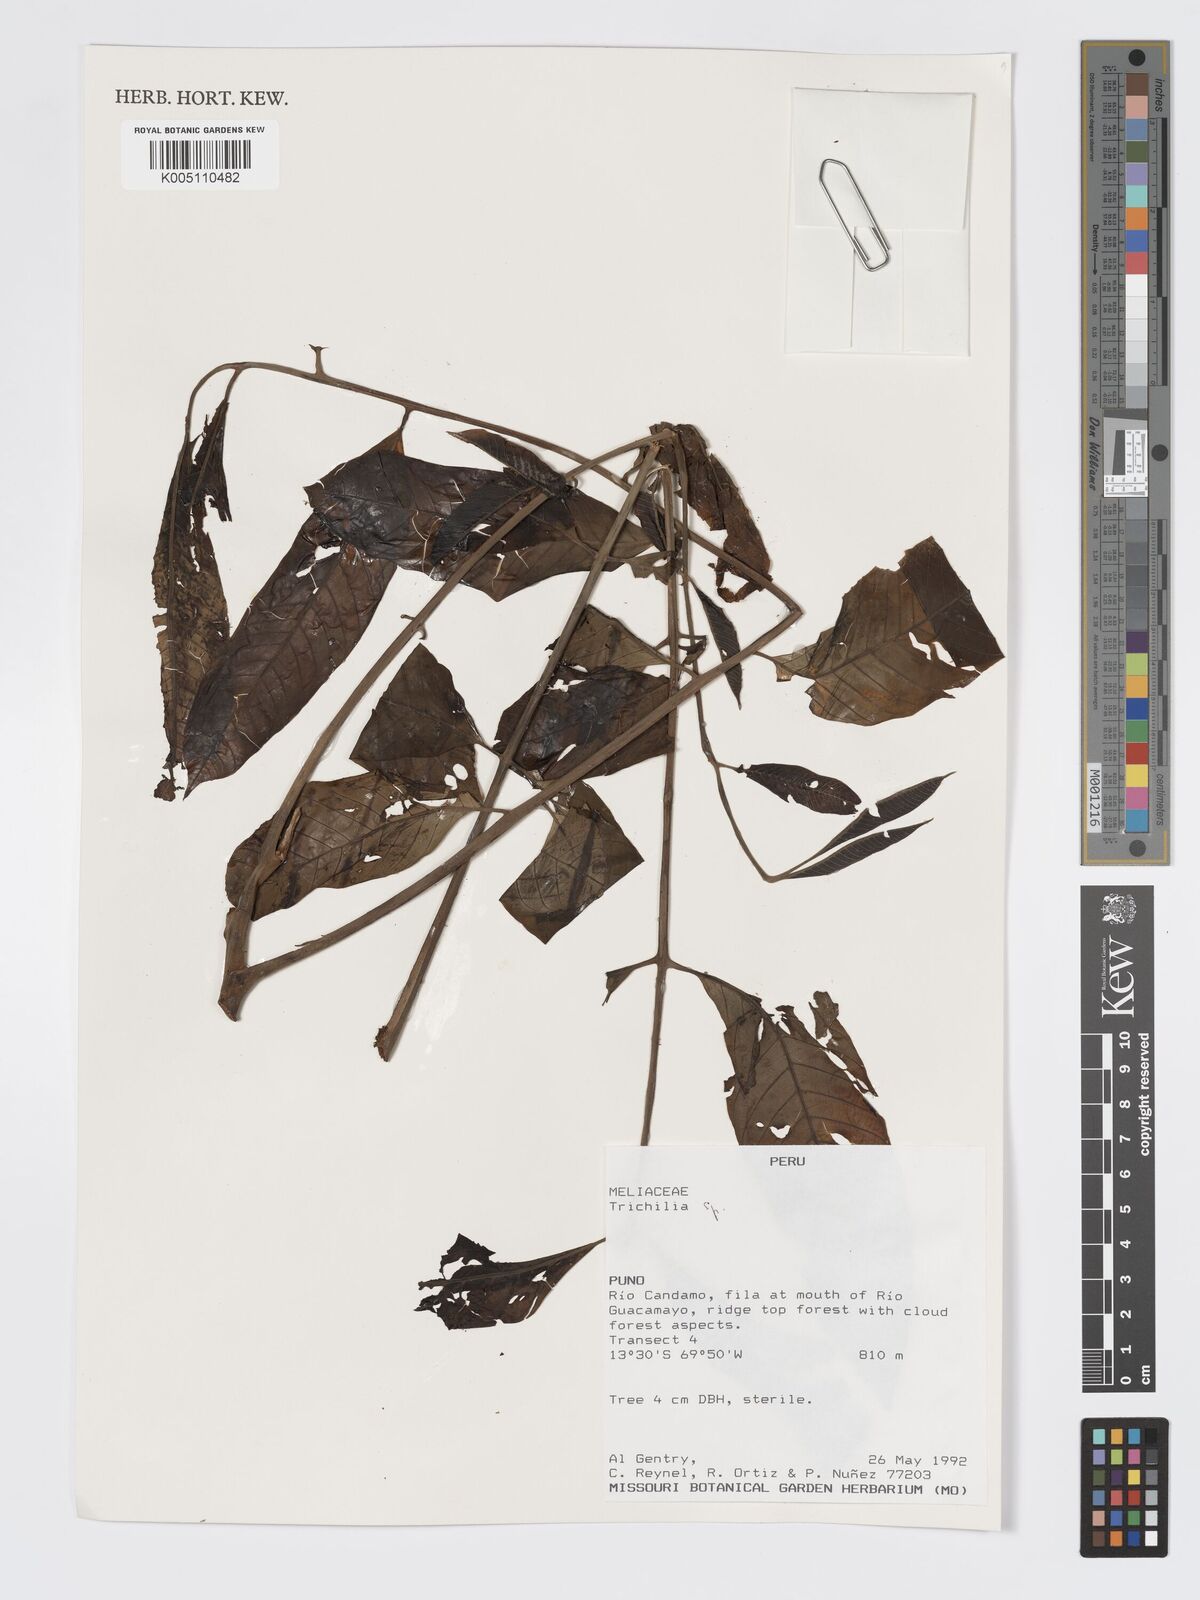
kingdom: Plantae
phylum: Tracheophyta
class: Magnoliopsida
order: Sapindales
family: Meliaceae
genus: Trichilia
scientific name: Trichilia
